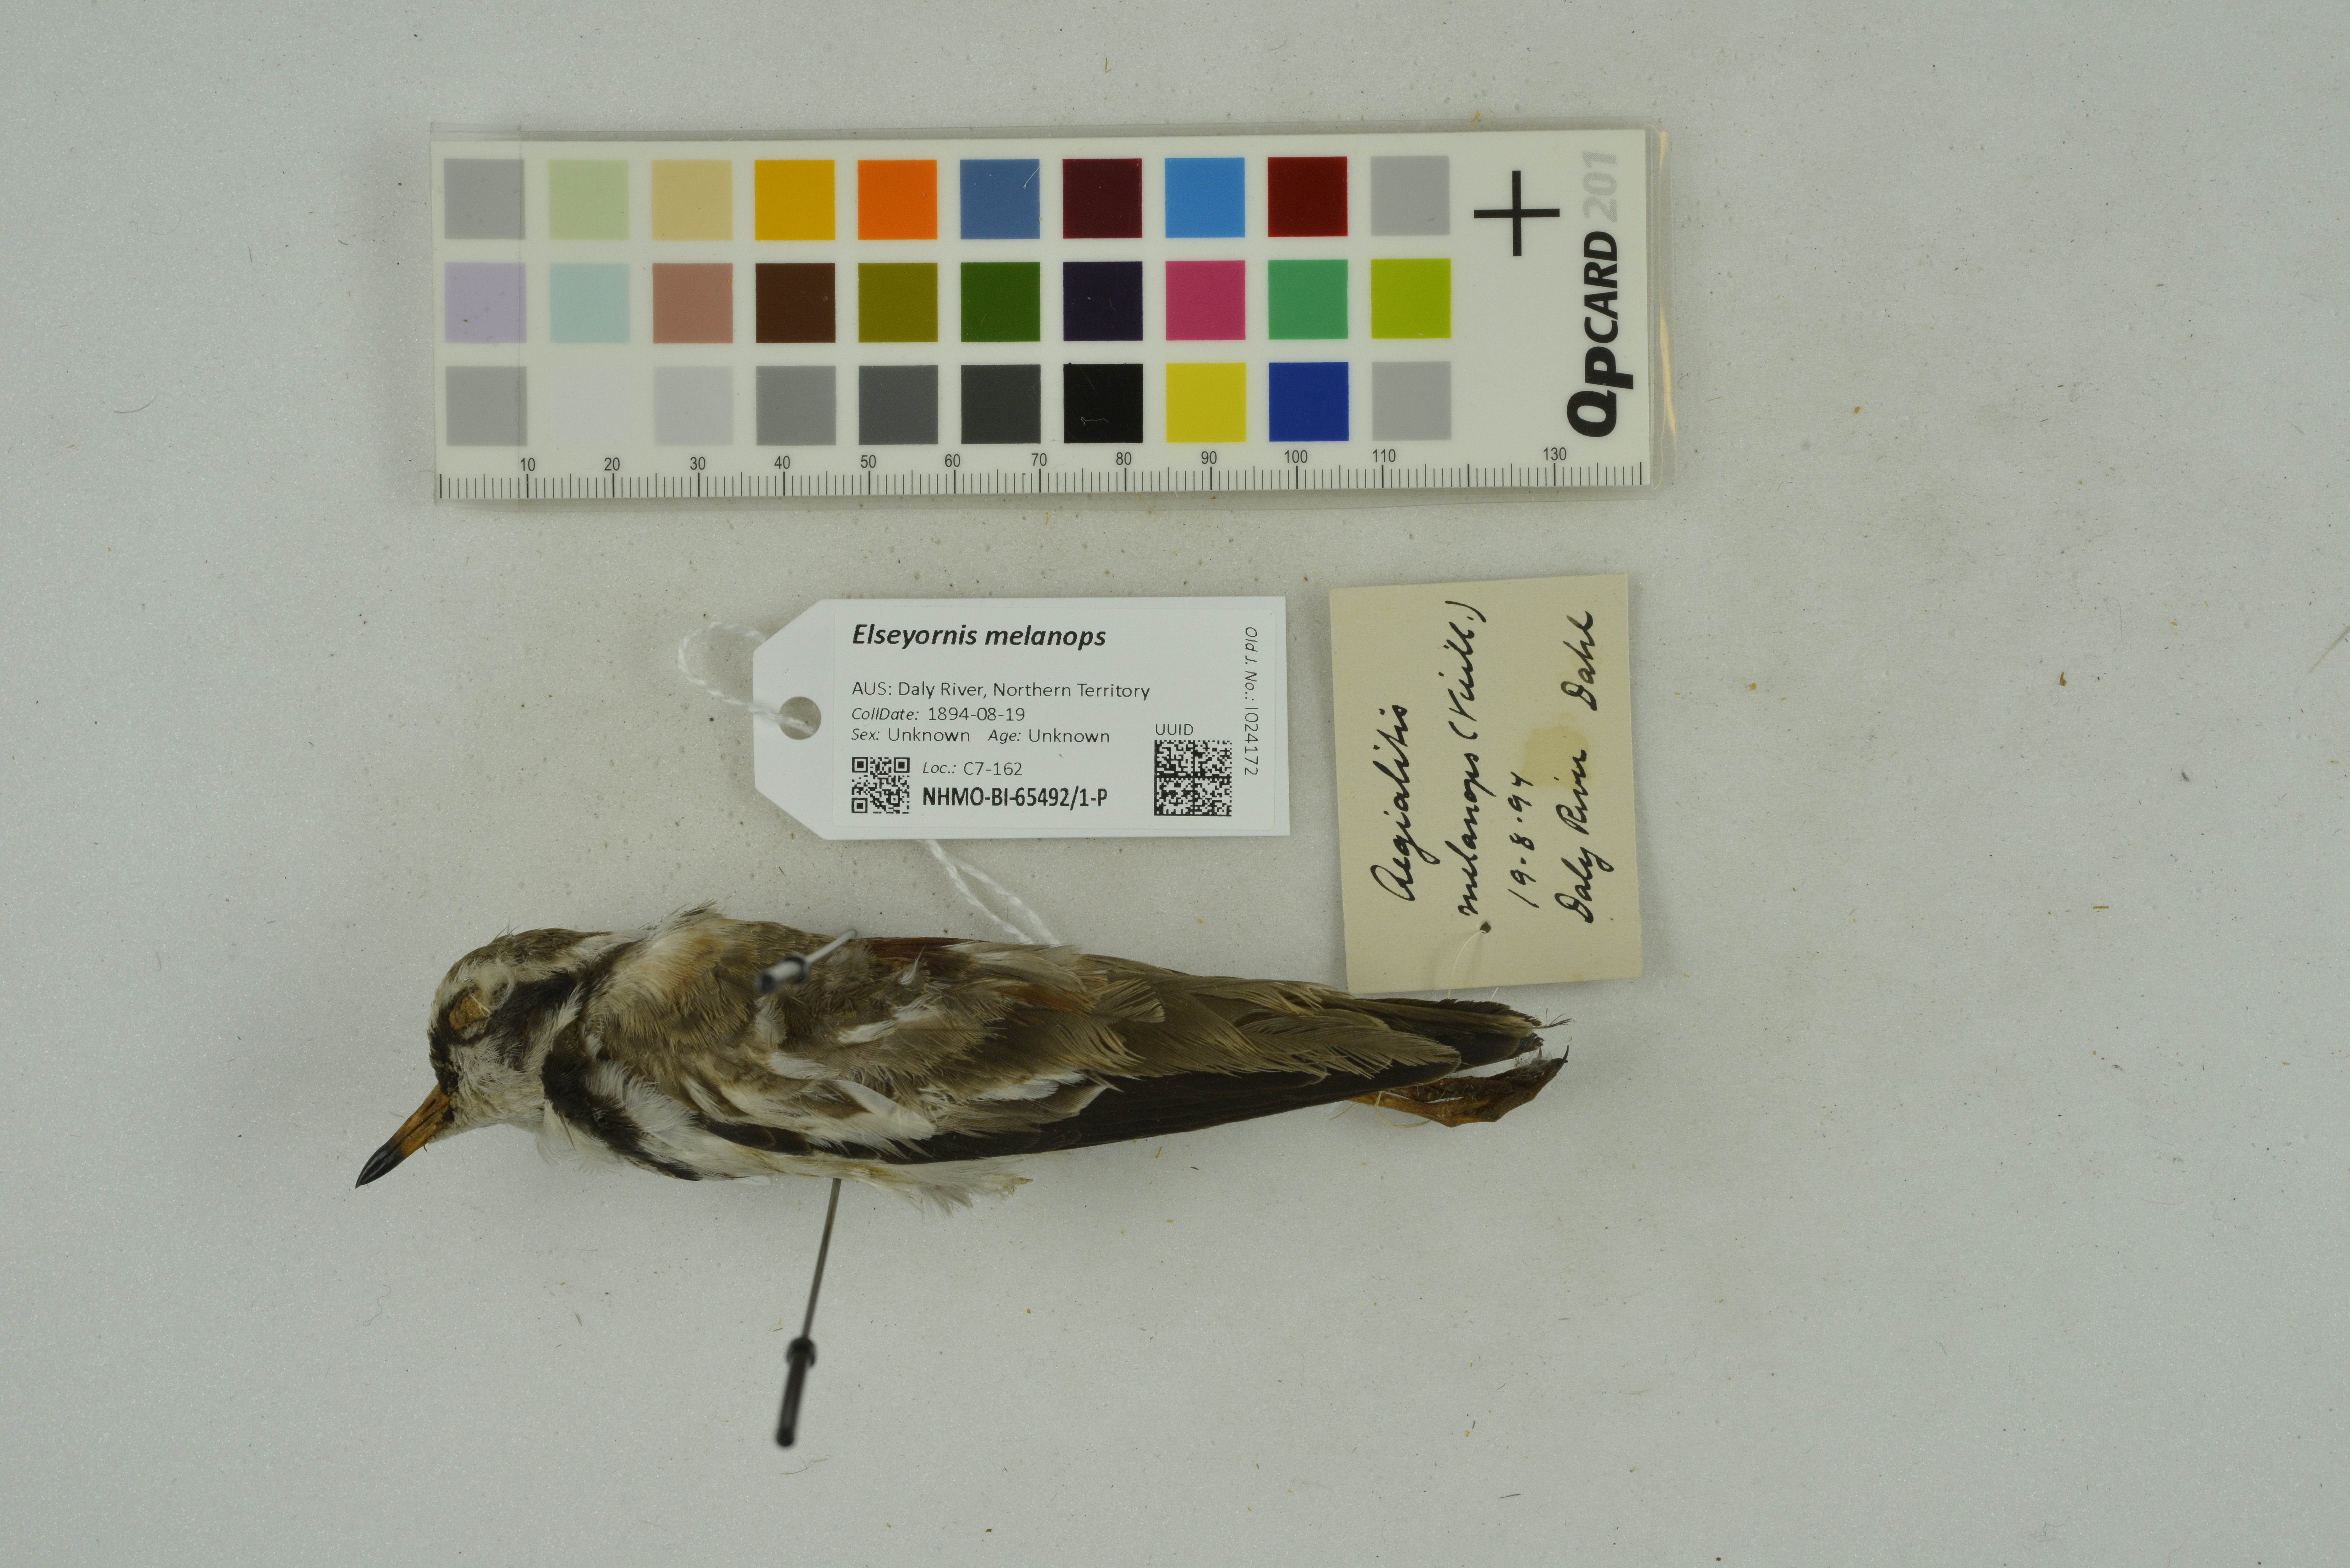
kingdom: Animalia
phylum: Chordata
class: Aves
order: Charadriiformes
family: Charadriidae
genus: Elseyornis
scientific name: Elseyornis melanops
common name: Black-fronted dotterel
